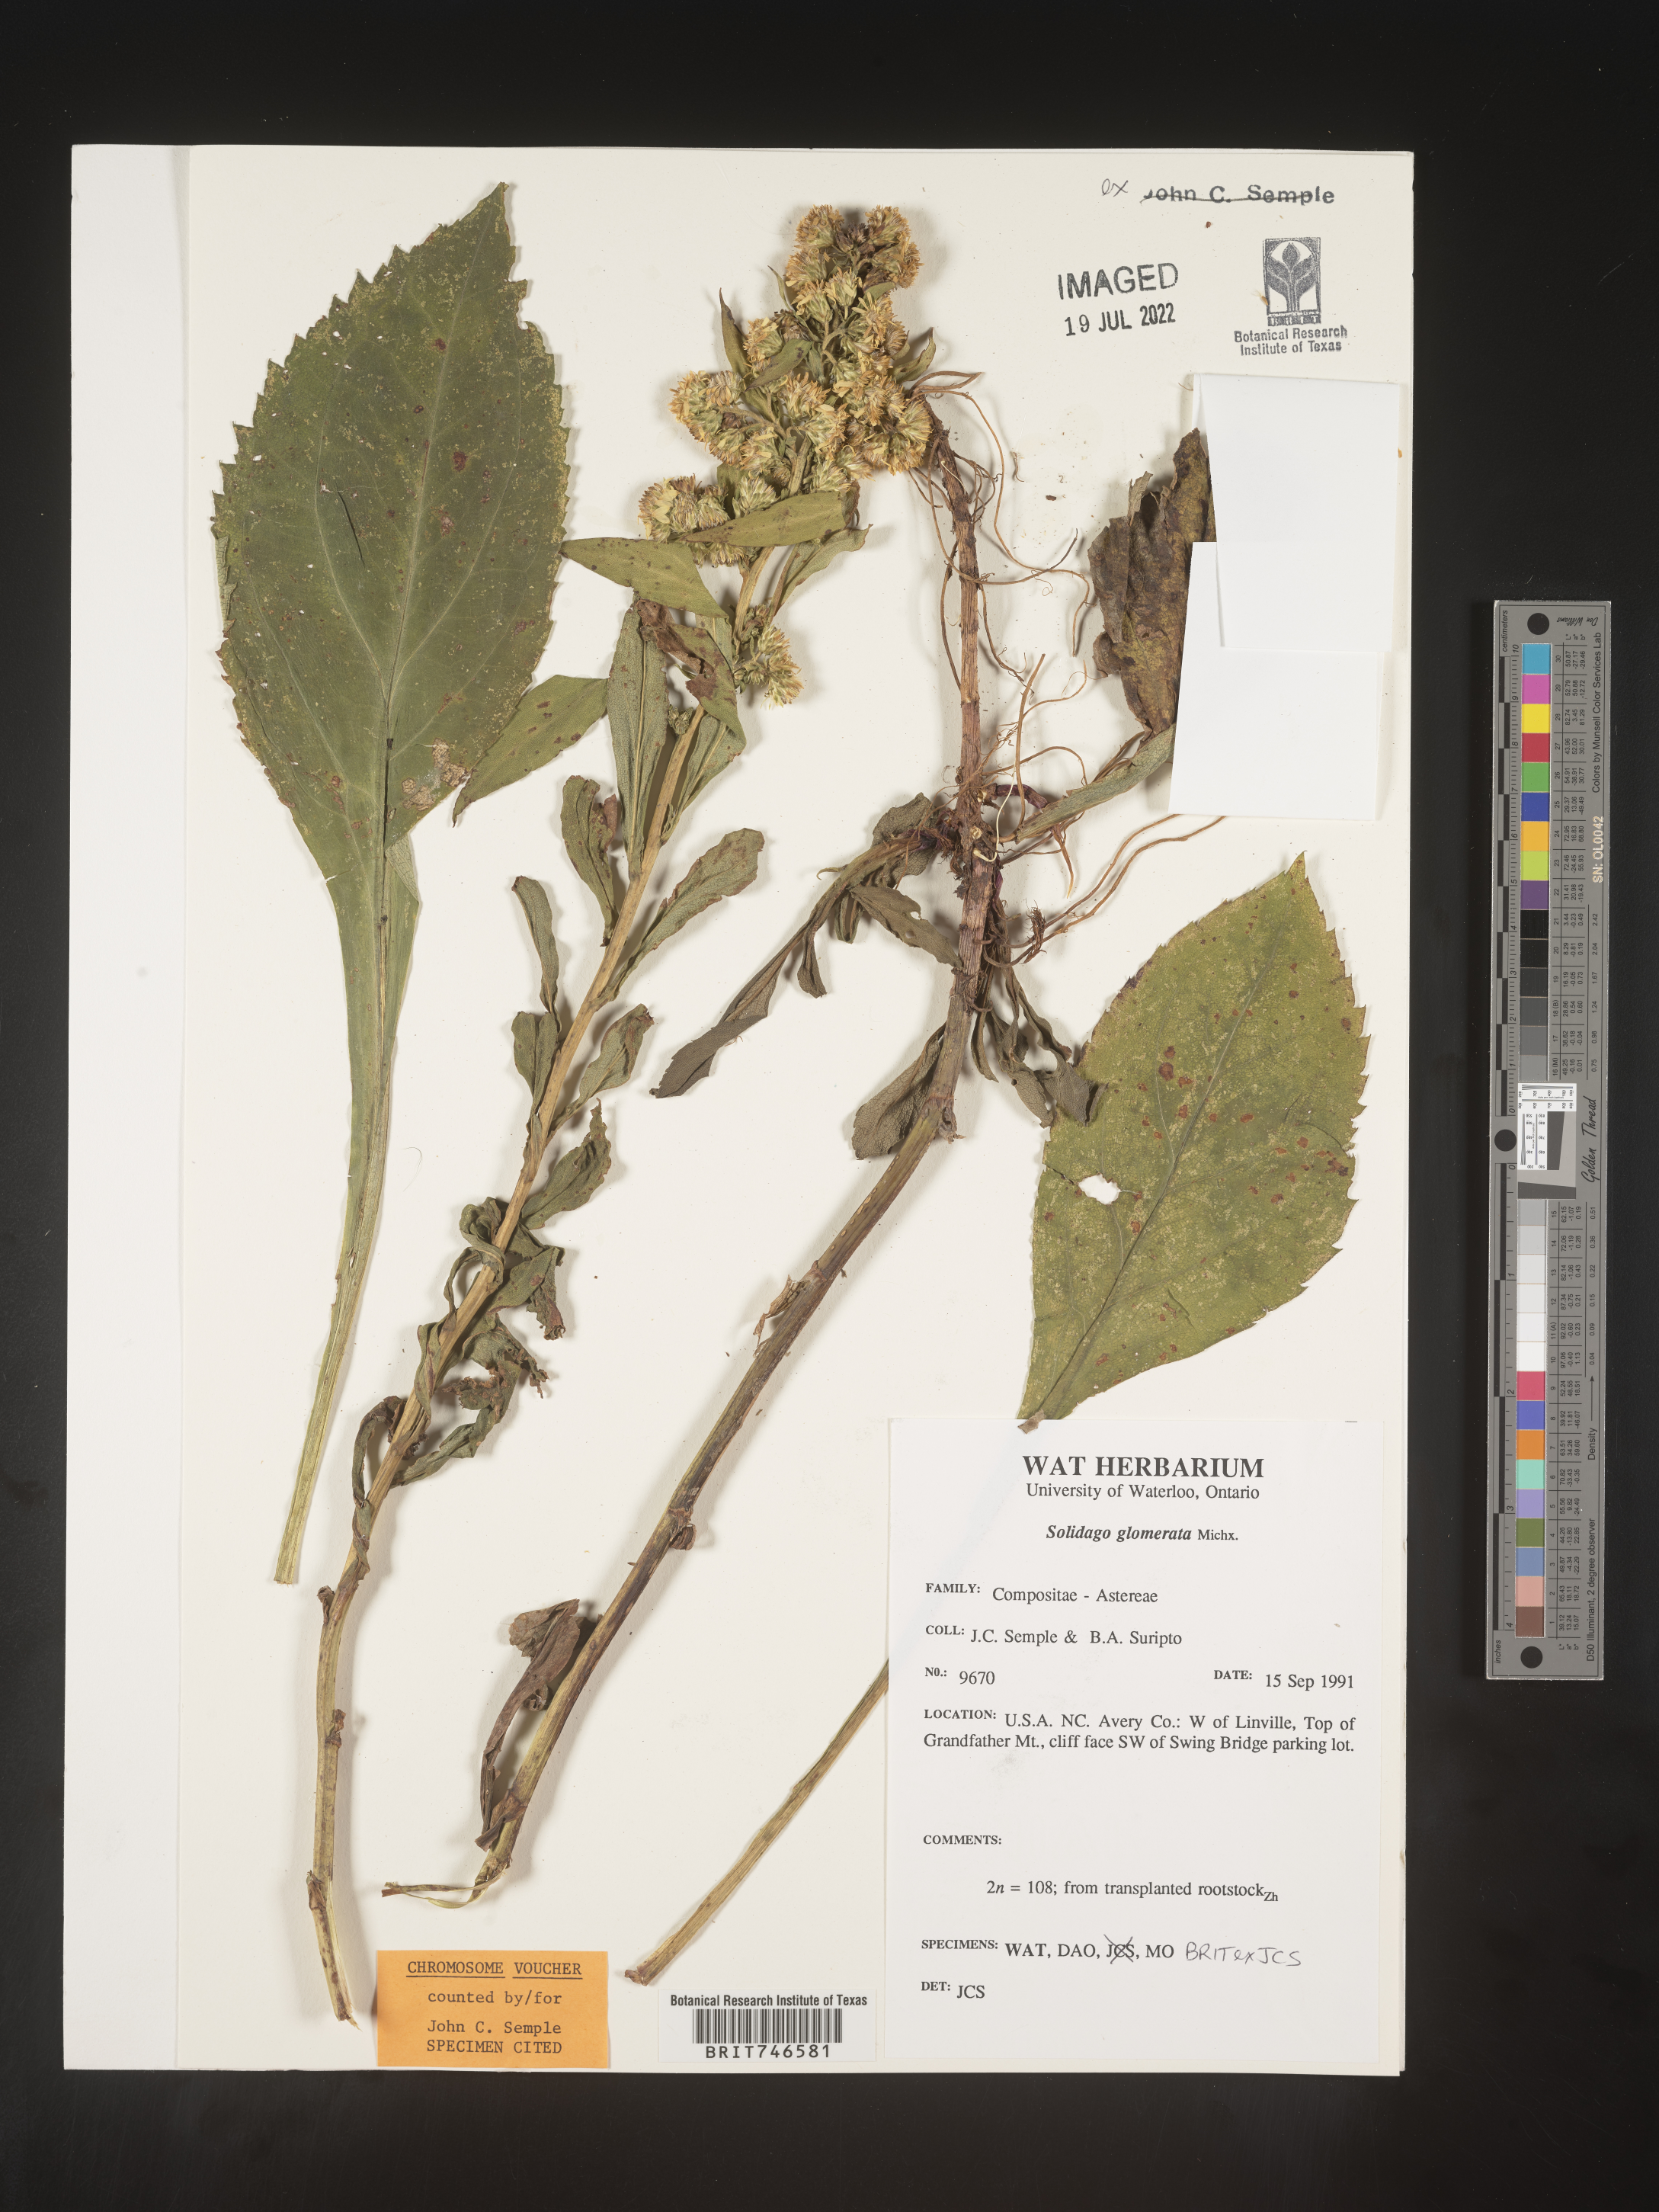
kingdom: Plantae
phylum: Tracheophyta
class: Magnoliopsida
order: Asterales
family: Asteraceae
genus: Solidago
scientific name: Solidago glomerata
